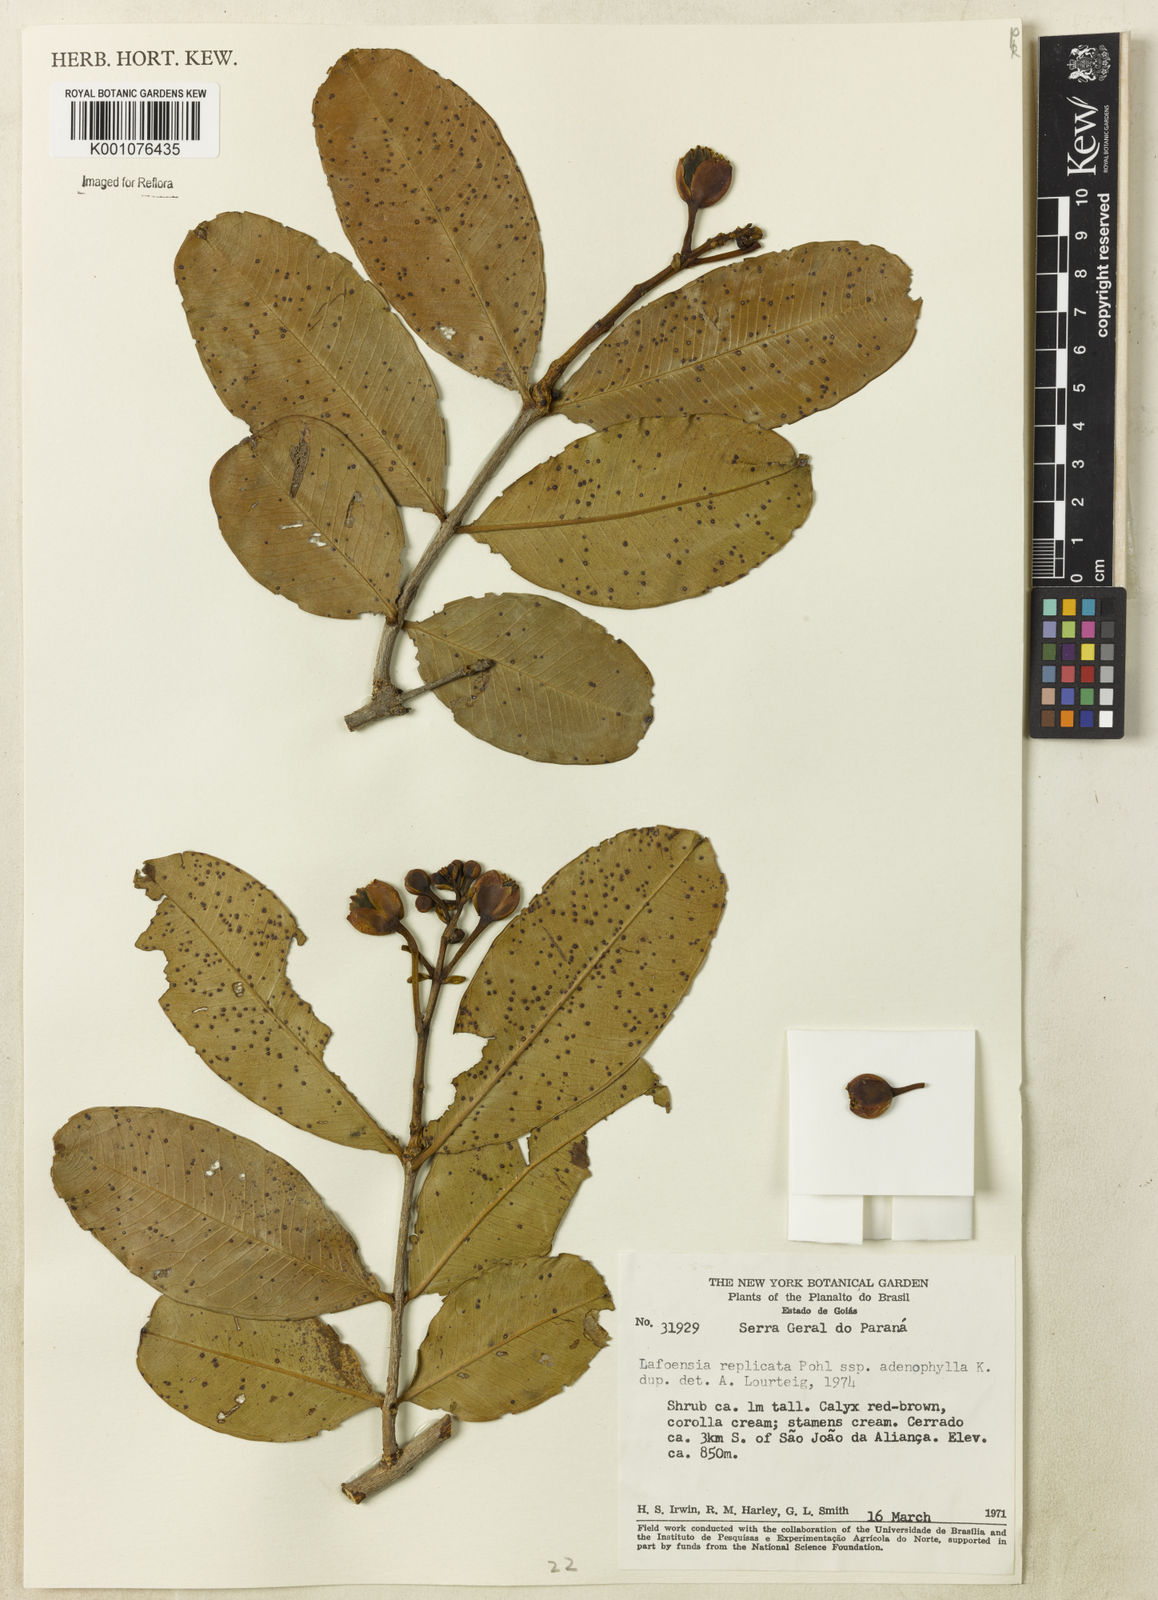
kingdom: Plantae
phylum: Tracheophyta
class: Magnoliopsida
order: Myrtales
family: Lythraceae
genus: Lafoensia
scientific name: Lafoensia vandelliana
